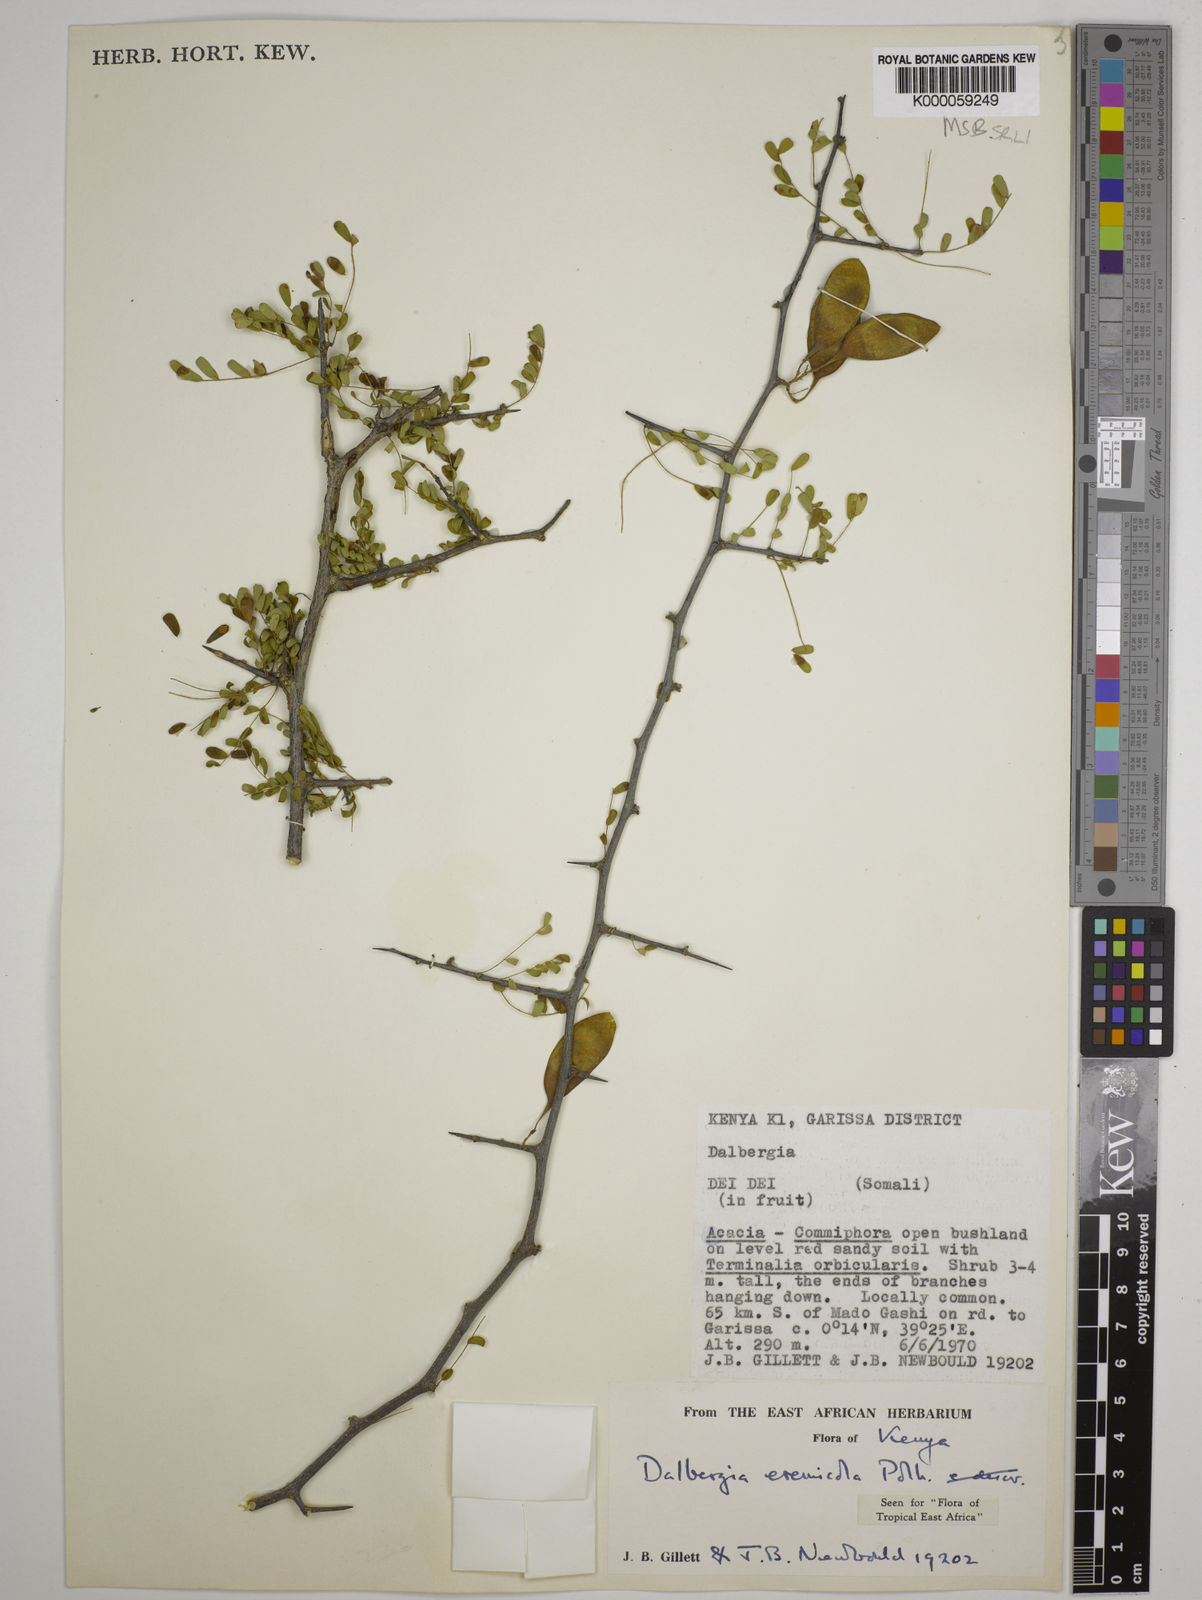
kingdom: Plantae
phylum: Tracheophyta
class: Magnoliopsida
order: Fabales
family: Fabaceae
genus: Dalbergia
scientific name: Dalbergia eremicola
